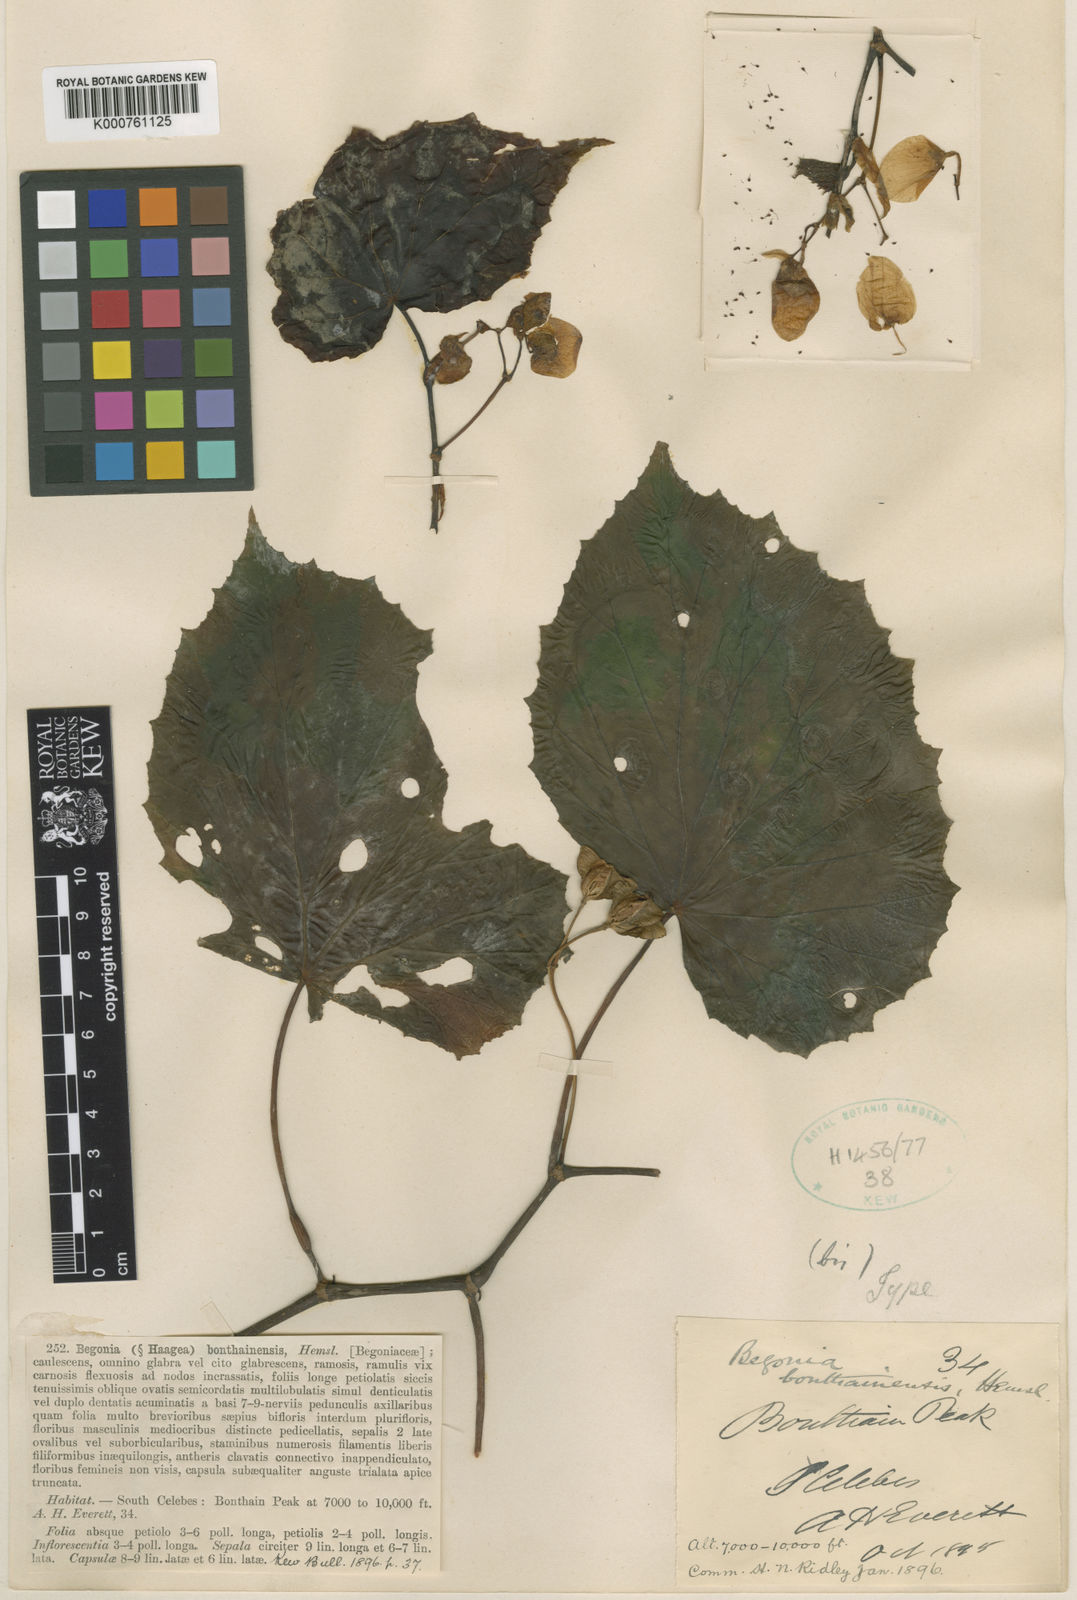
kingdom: Plantae
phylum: Tracheophyta
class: Magnoliopsida
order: Cucurbitales
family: Begoniaceae
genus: Begonia
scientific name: Begonia bonthainensis
